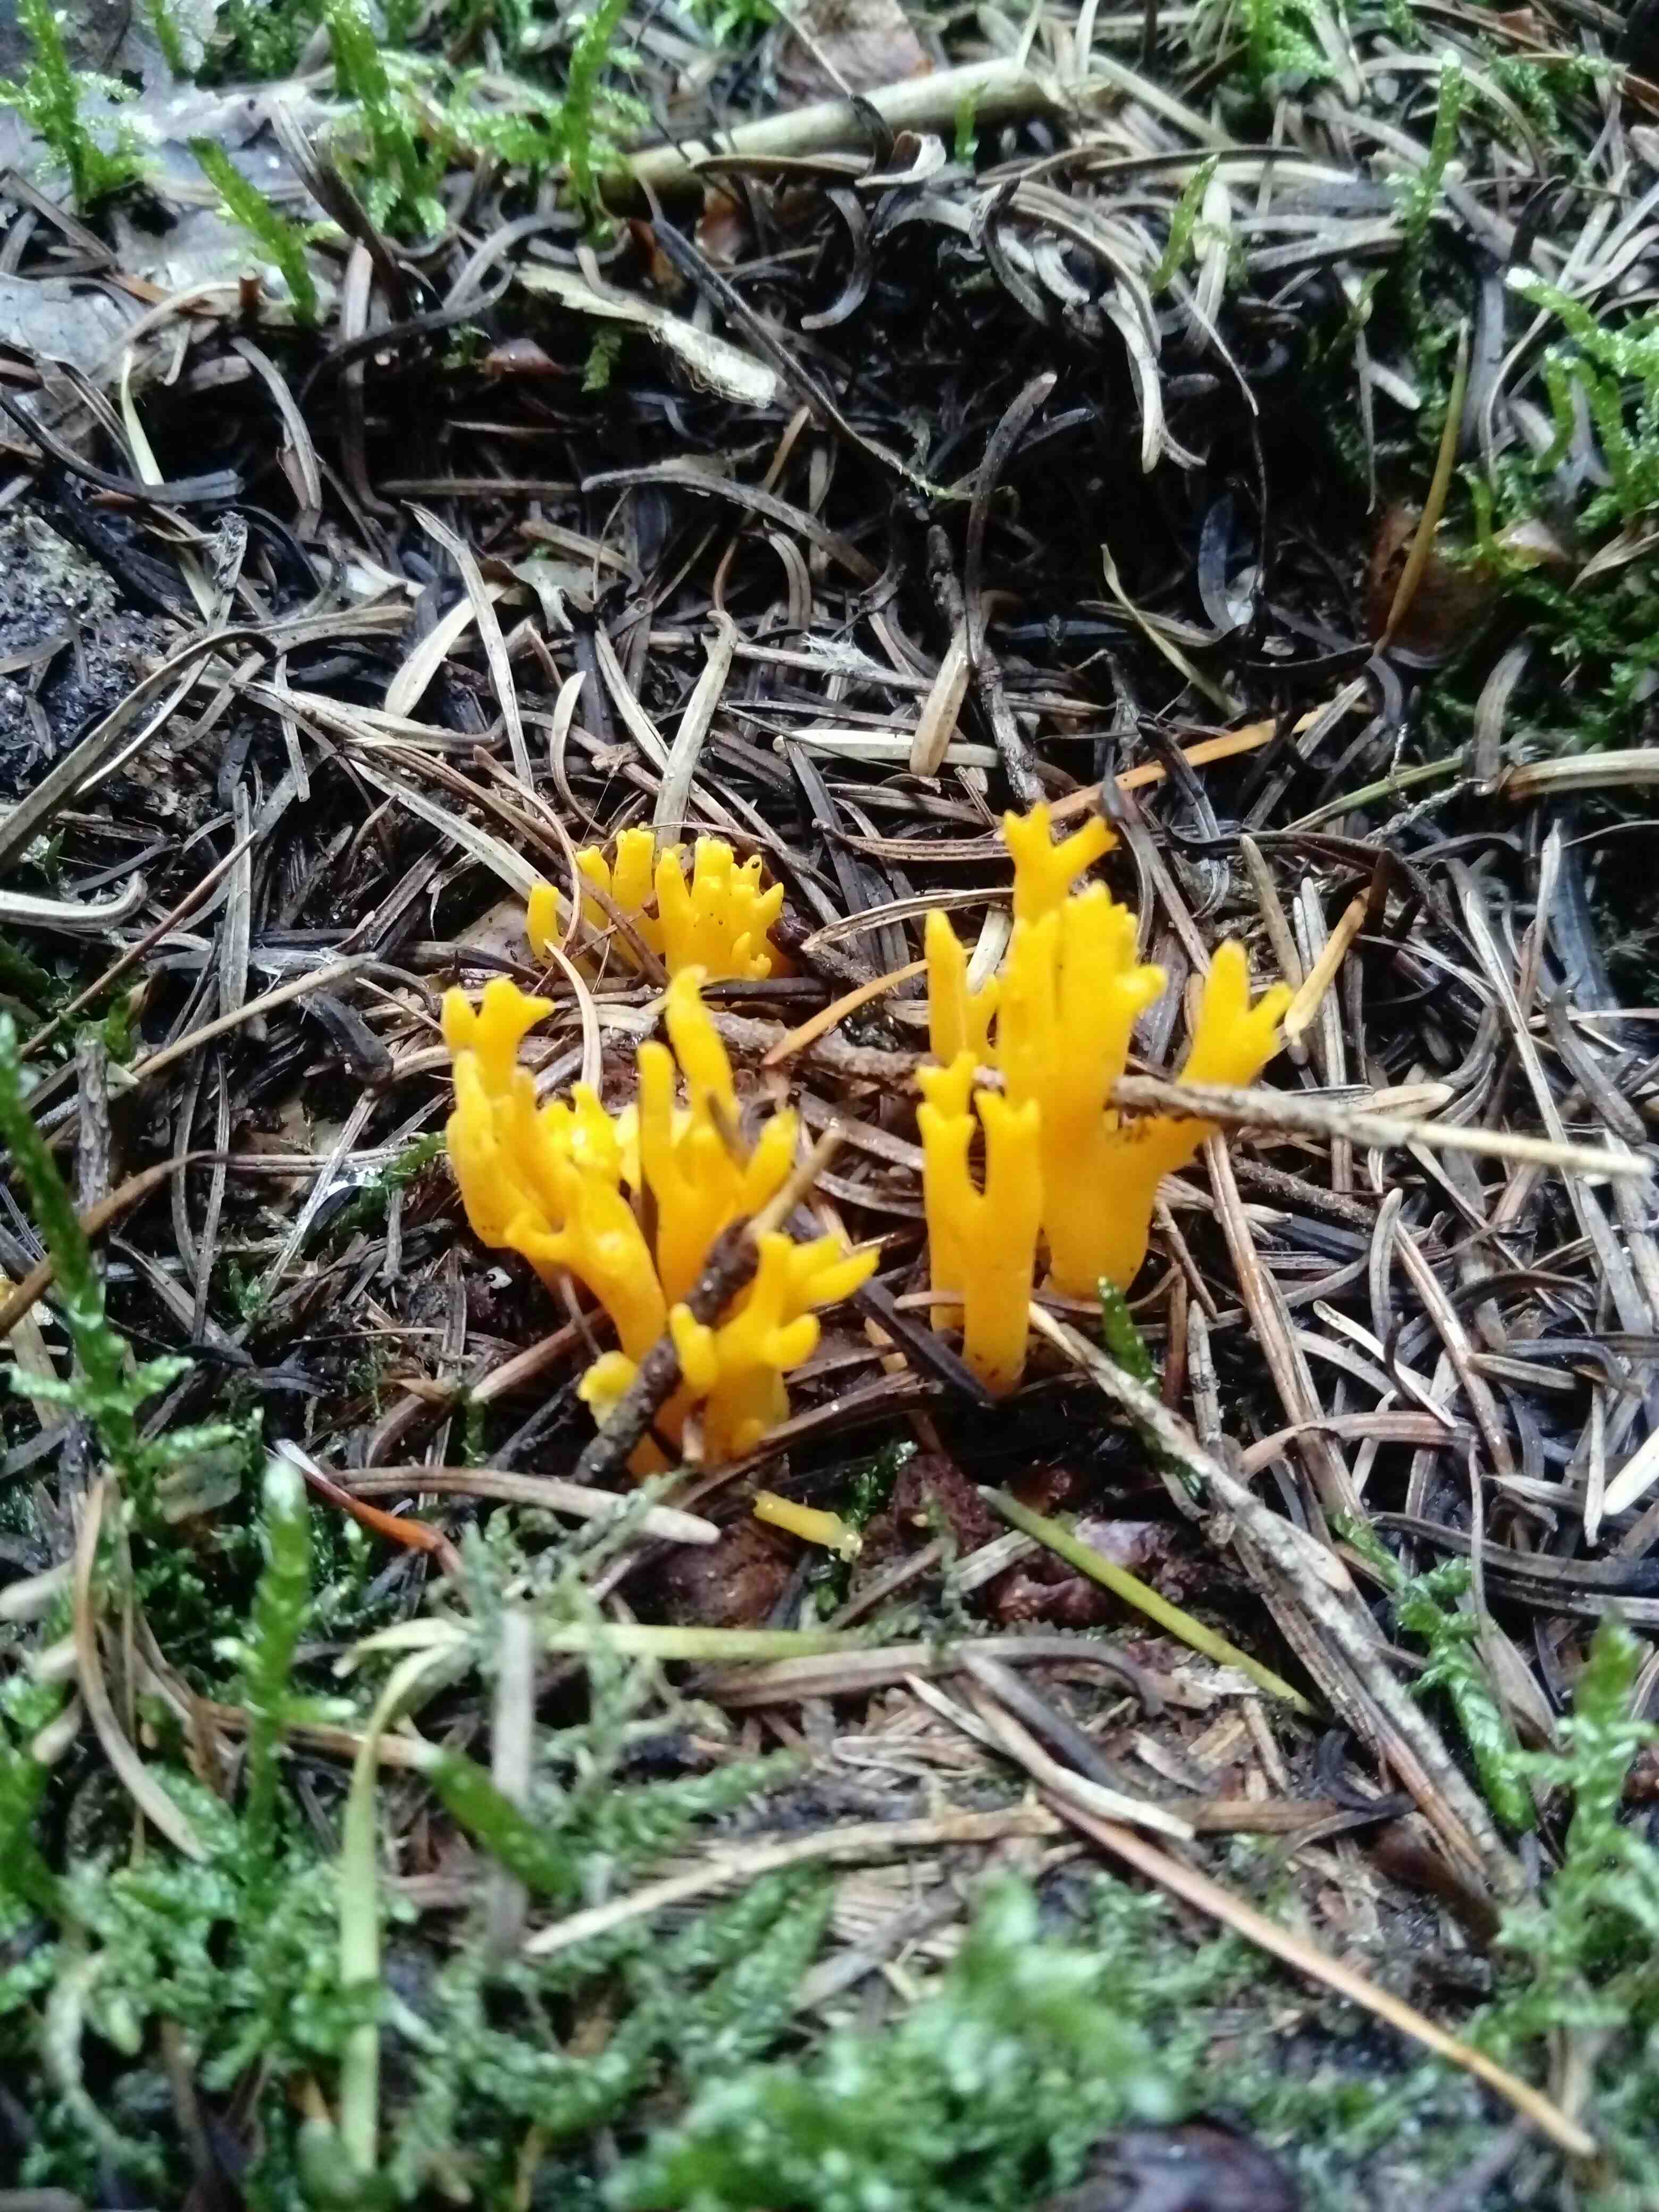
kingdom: Fungi
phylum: Basidiomycota
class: Dacrymycetes
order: Dacrymycetales
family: Dacrymycetaceae
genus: Calocera
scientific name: Calocera viscosa
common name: almindelig guldgaffel
